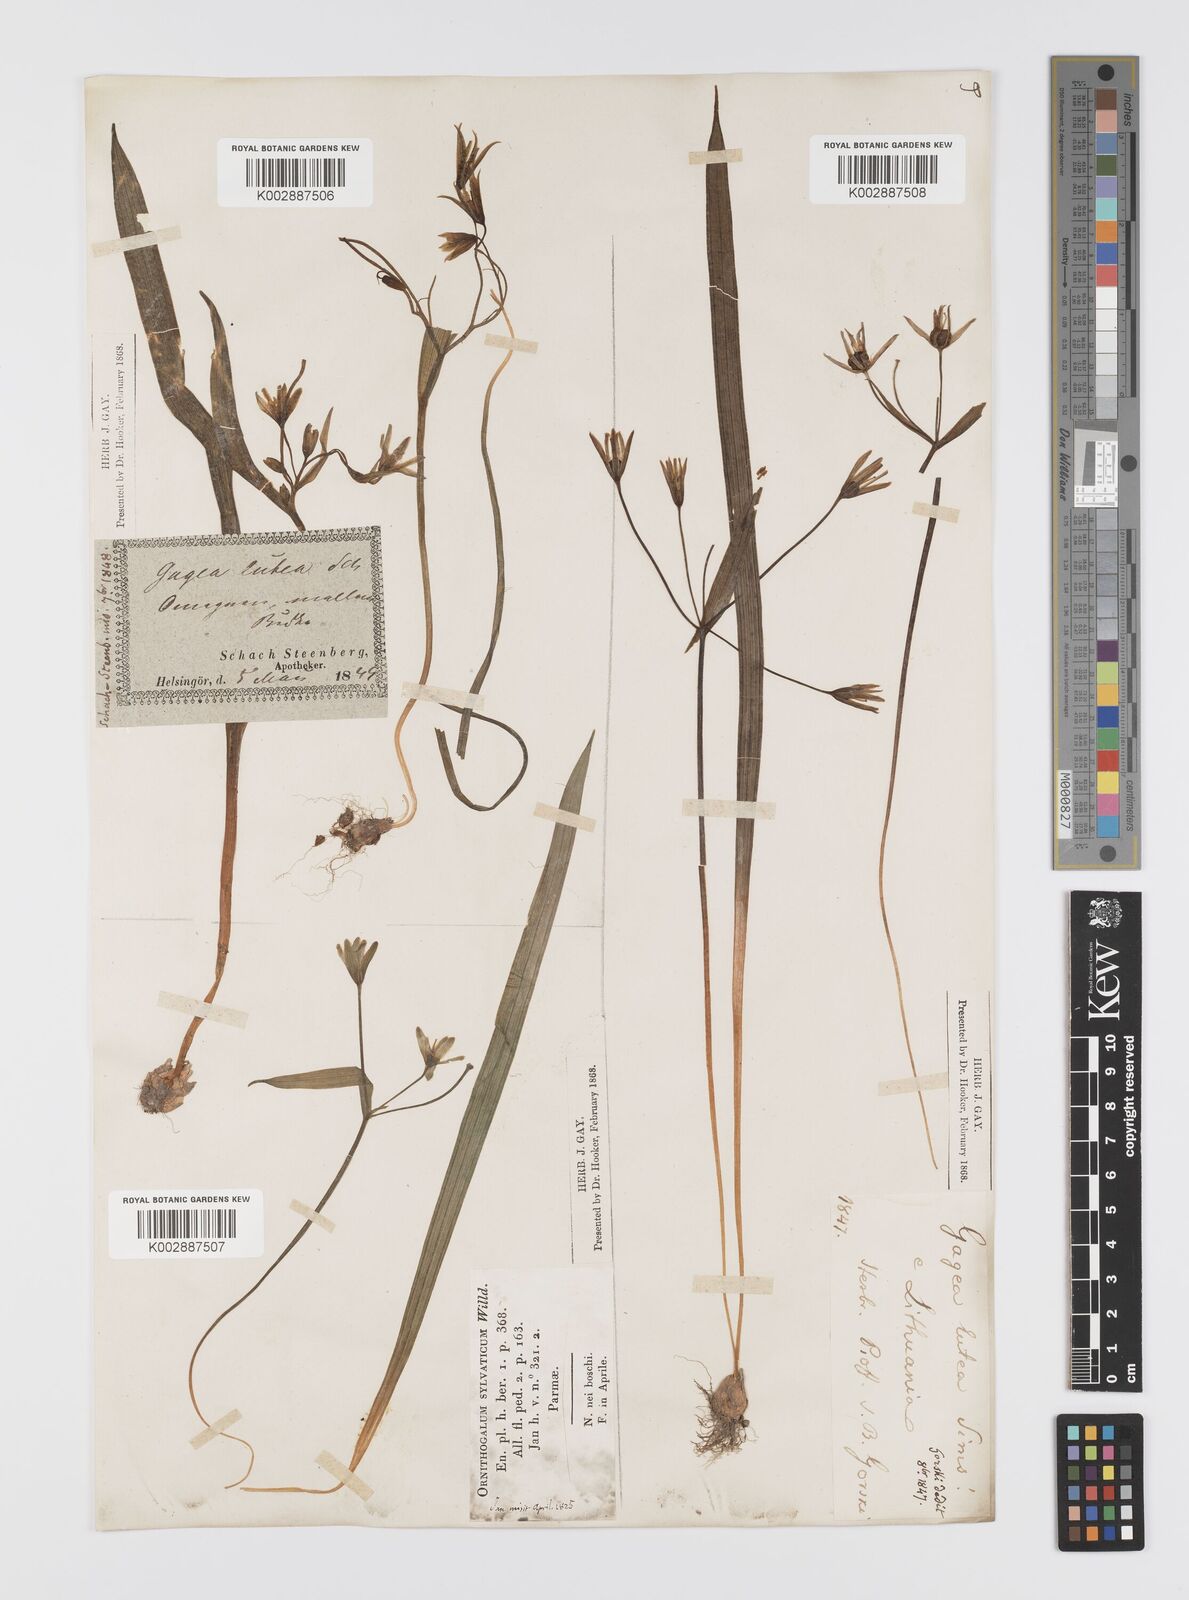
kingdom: Plantae
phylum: Tracheophyta
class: Liliopsida
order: Liliales
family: Liliaceae
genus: Gagea
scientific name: Gagea lutea
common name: Yellow star-of-bethlehem
